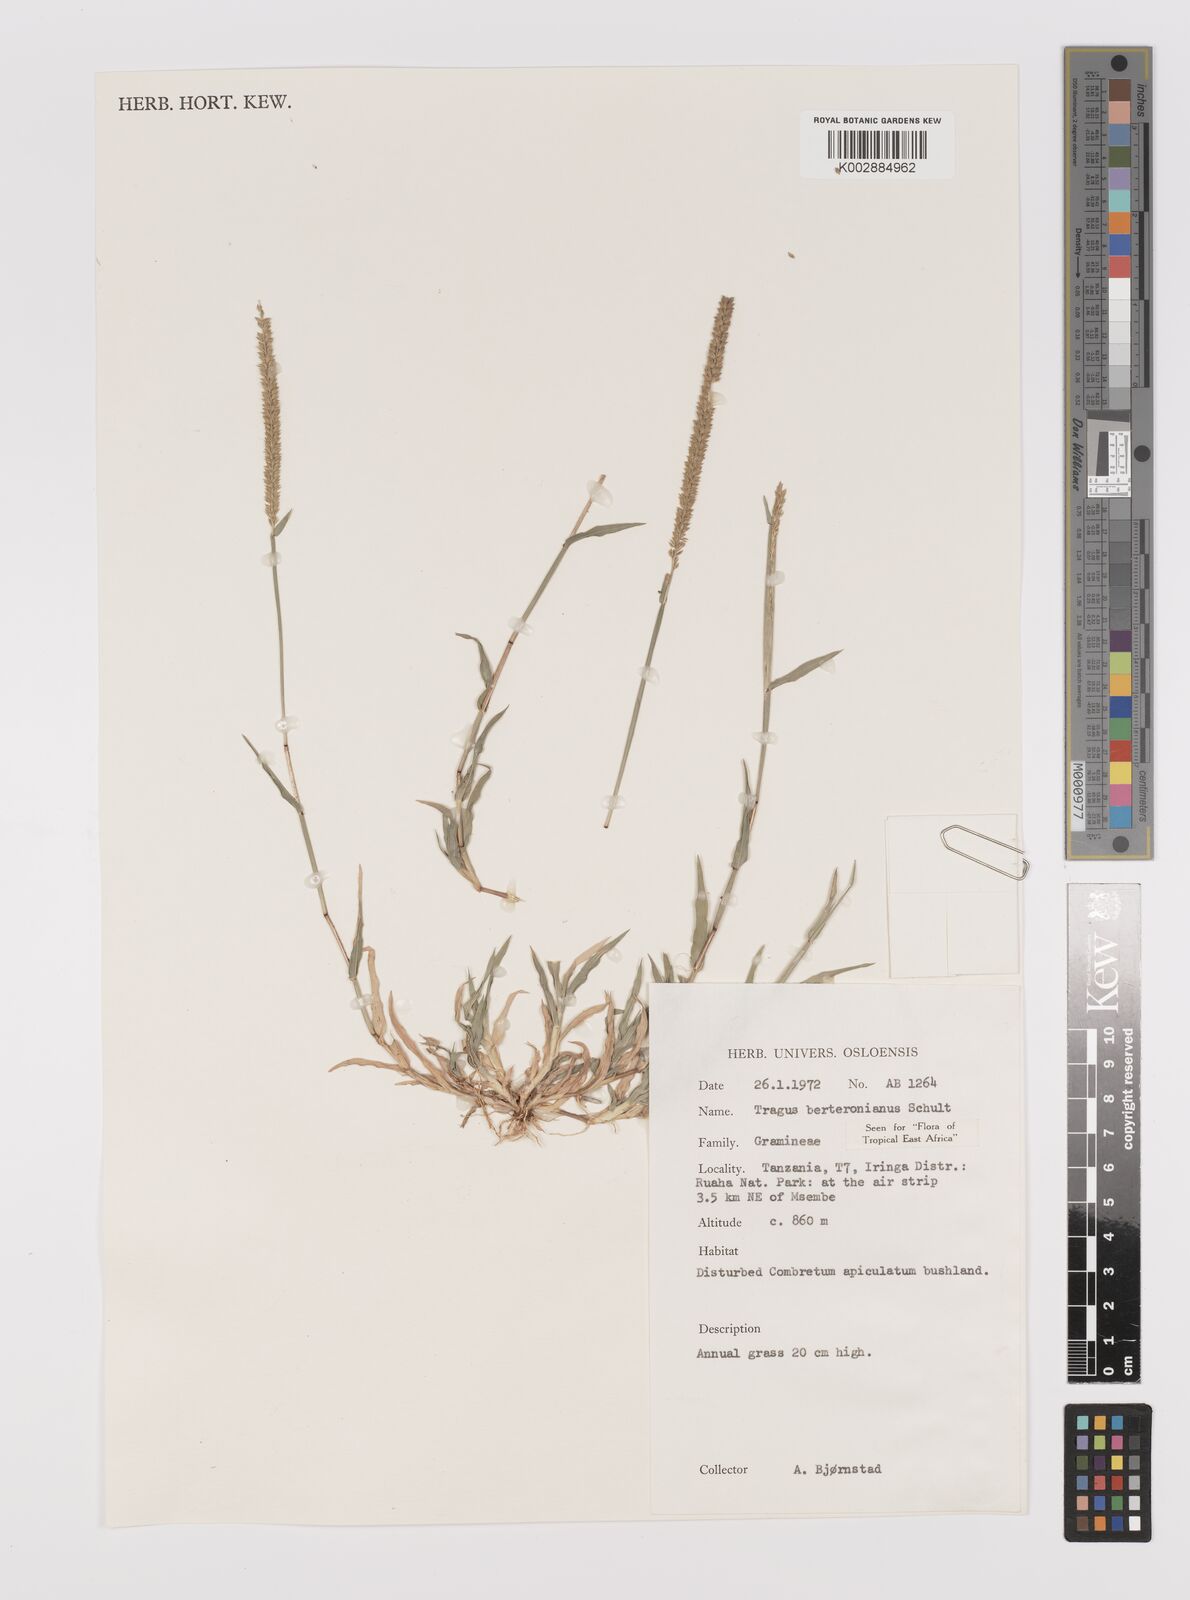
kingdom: Plantae
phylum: Tracheophyta
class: Liliopsida
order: Poales
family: Poaceae
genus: Tragus
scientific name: Tragus berteronianus
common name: African bur-grass
